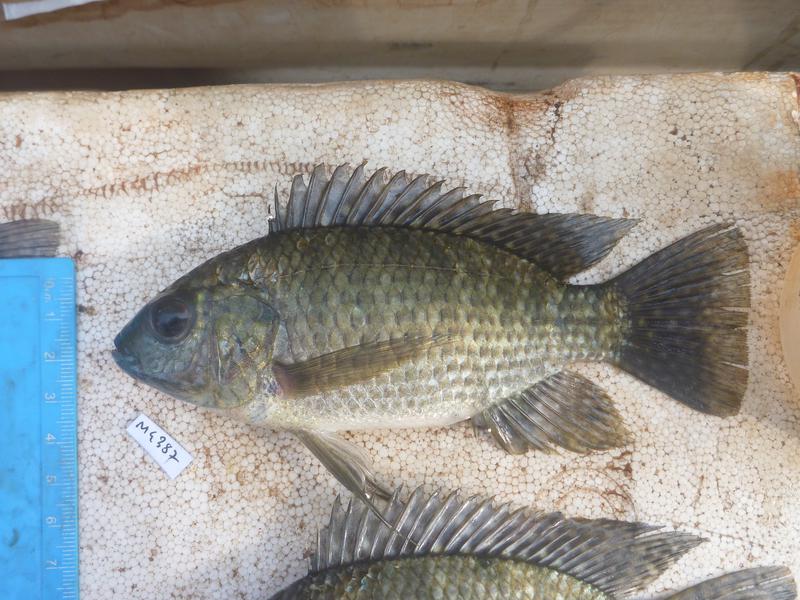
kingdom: Animalia
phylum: Chordata
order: Perciformes
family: Cichlidae
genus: Oreochromis
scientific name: Oreochromis leucostictus
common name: Blue spotted tilapia
